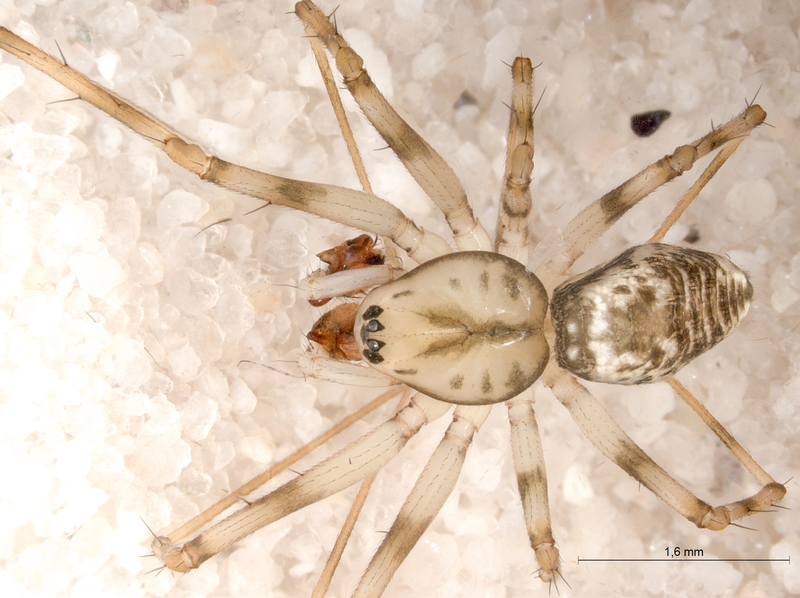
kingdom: Animalia
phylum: Arthropoda
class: Arachnida
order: Araneae
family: Linyphiidae
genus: Drapetisca
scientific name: Drapetisca socialis
